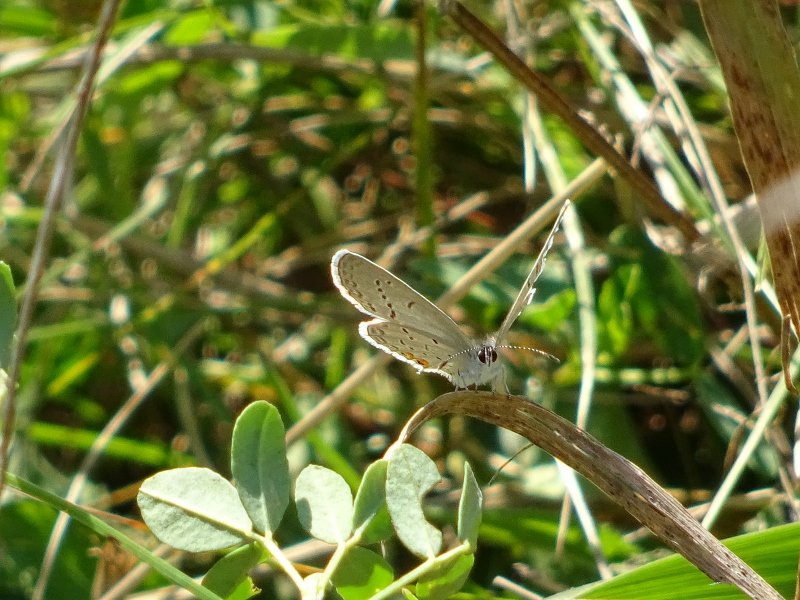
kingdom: Animalia
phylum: Arthropoda
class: Insecta
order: Lepidoptera
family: Lycaenidae
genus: Elkalyce
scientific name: Elkalyce comyntas
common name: Eastern Tailed-Blue
